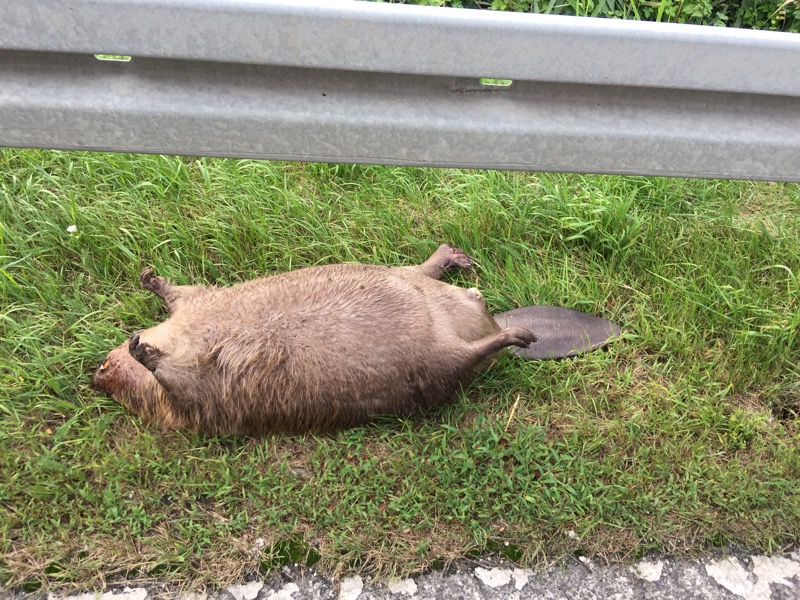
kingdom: Animalia
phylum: Chordata
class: Mammalia
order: Rodentia
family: Castoridae
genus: Castor
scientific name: Castor fiber
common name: Eurasian beaver
